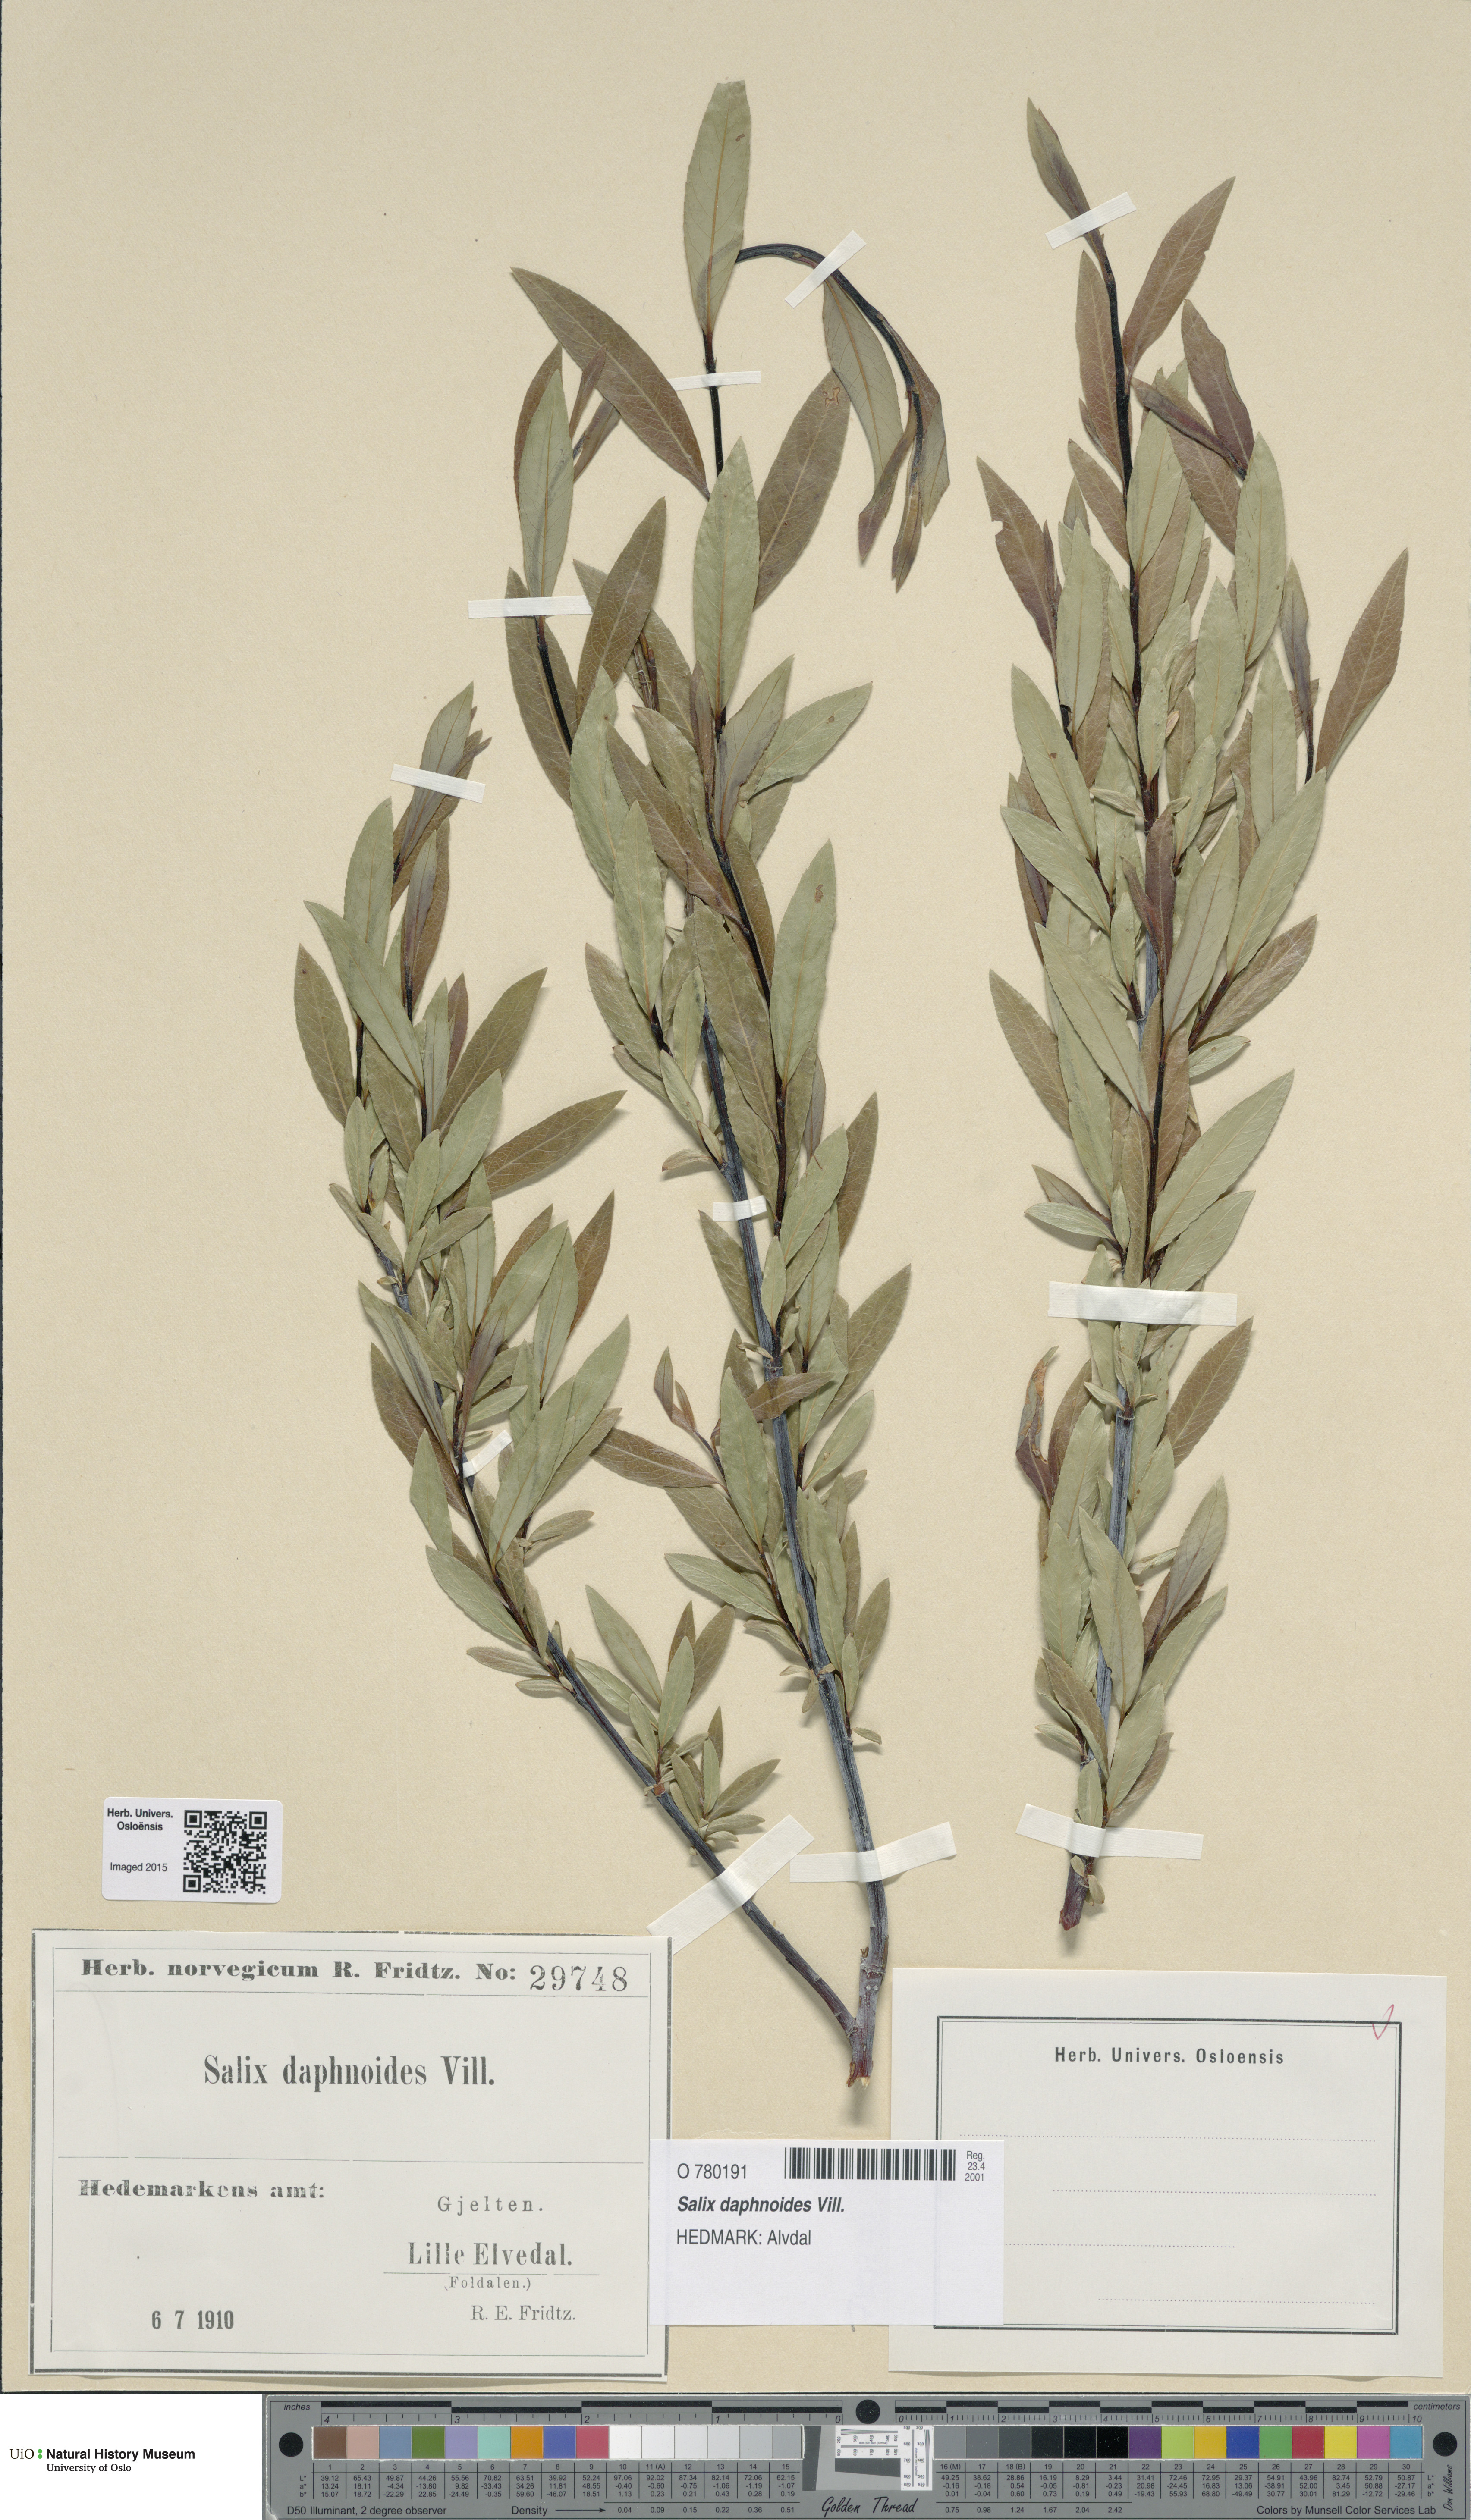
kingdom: Plantae
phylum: Tracheophyta
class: Magnoliopsida
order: Malpighiales
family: Salicaceae
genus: Salix
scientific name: Salix daphnoides
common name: European violet-willow
